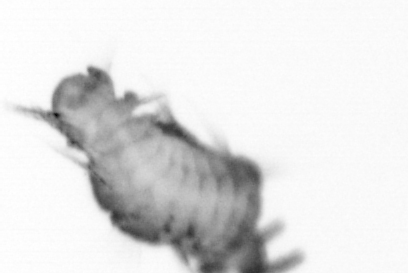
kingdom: Animalia
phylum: Annelida
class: Polychaeta
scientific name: Polychaeta
